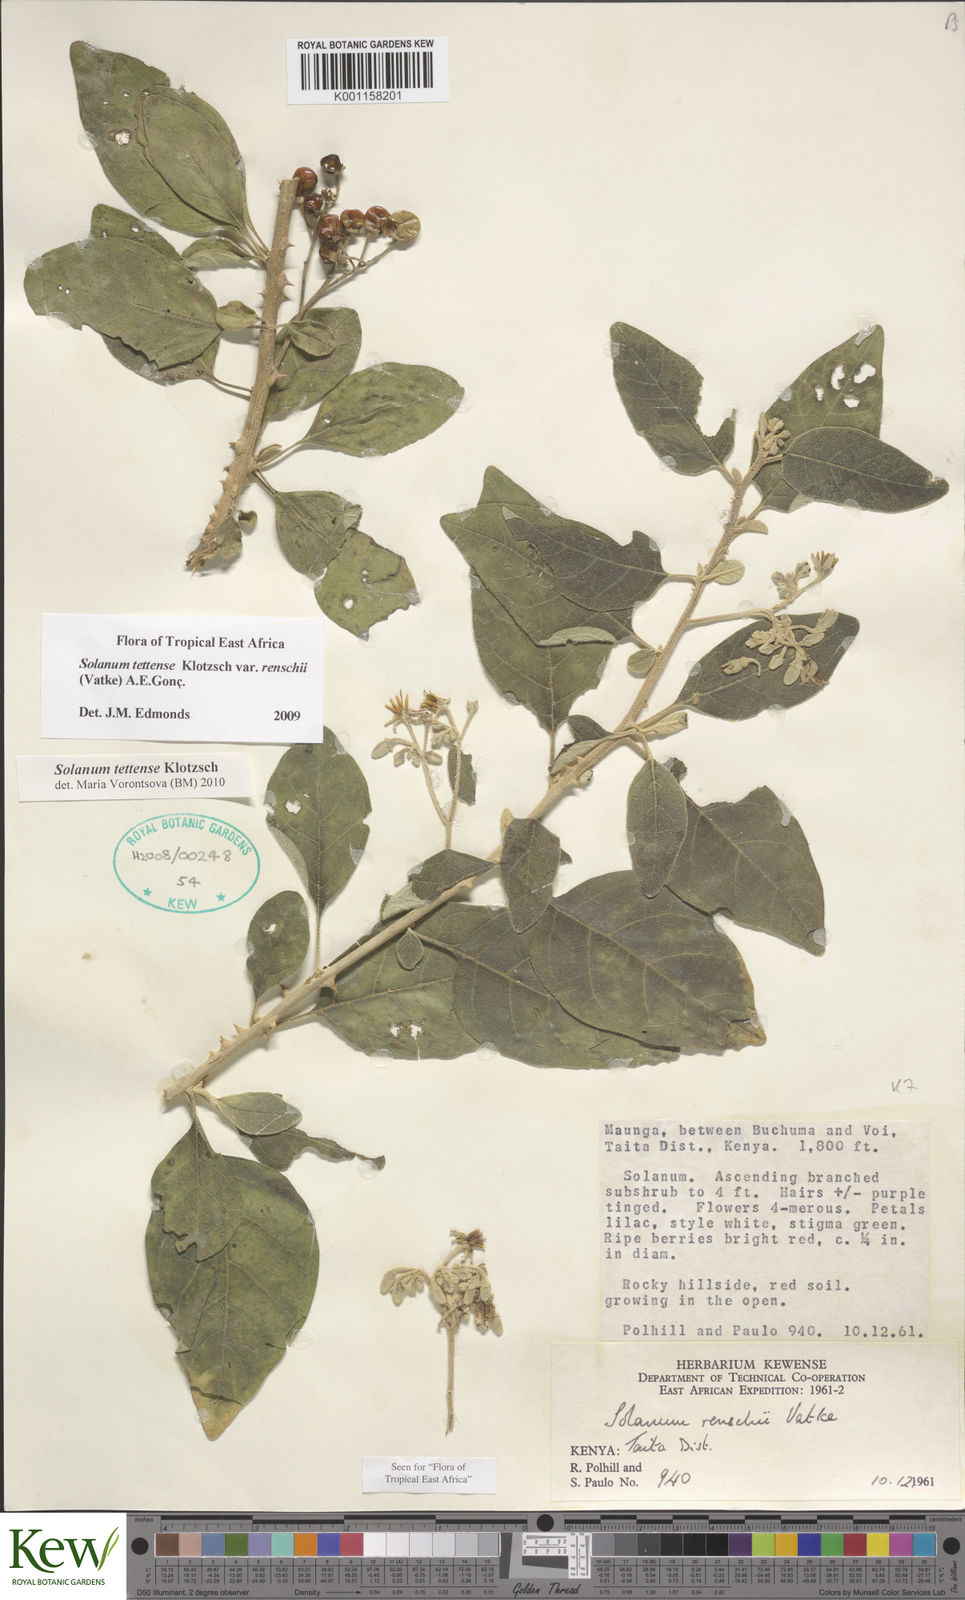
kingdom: Plantae
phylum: Tracheophyta
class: Magnoliopsida
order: Solanales
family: Solanaceae
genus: Solanum
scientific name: Solanum tettense
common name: Mozambique bitter apple
